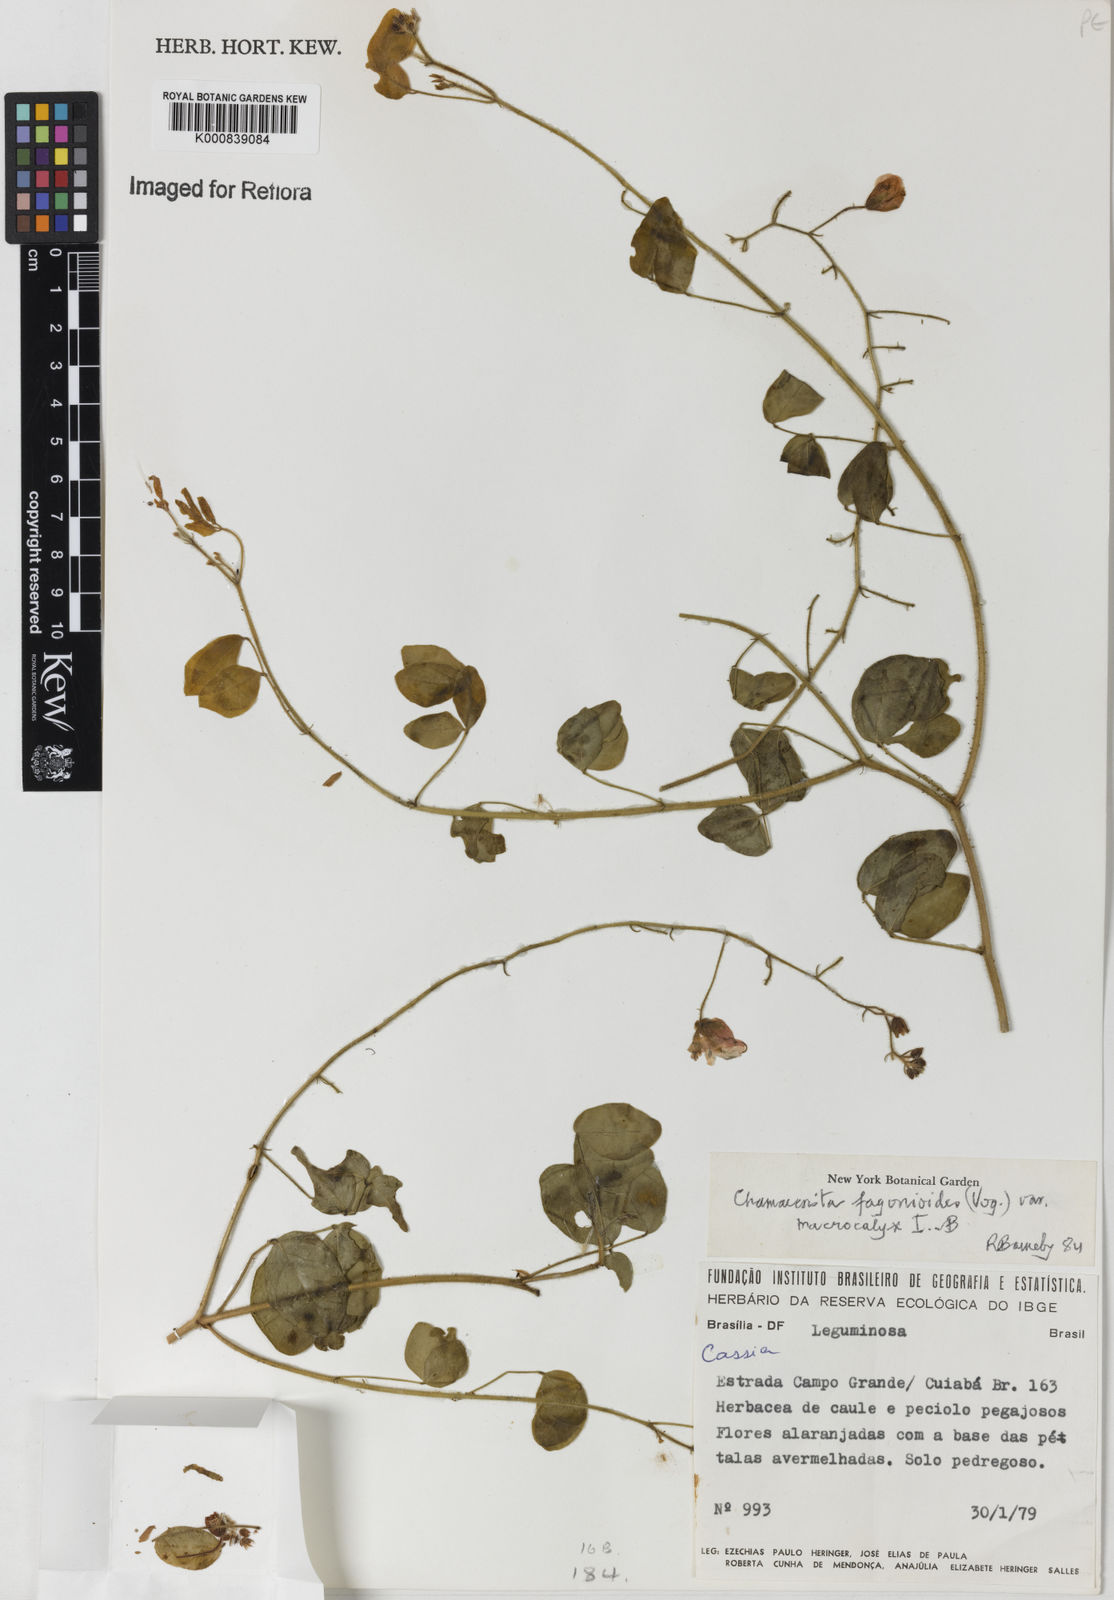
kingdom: Plantae
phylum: Tracheophyta
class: Magnoliopsida
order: Fabales
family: Fabaceae
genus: Chamaecrista
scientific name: Chamaecrista fagonioides
